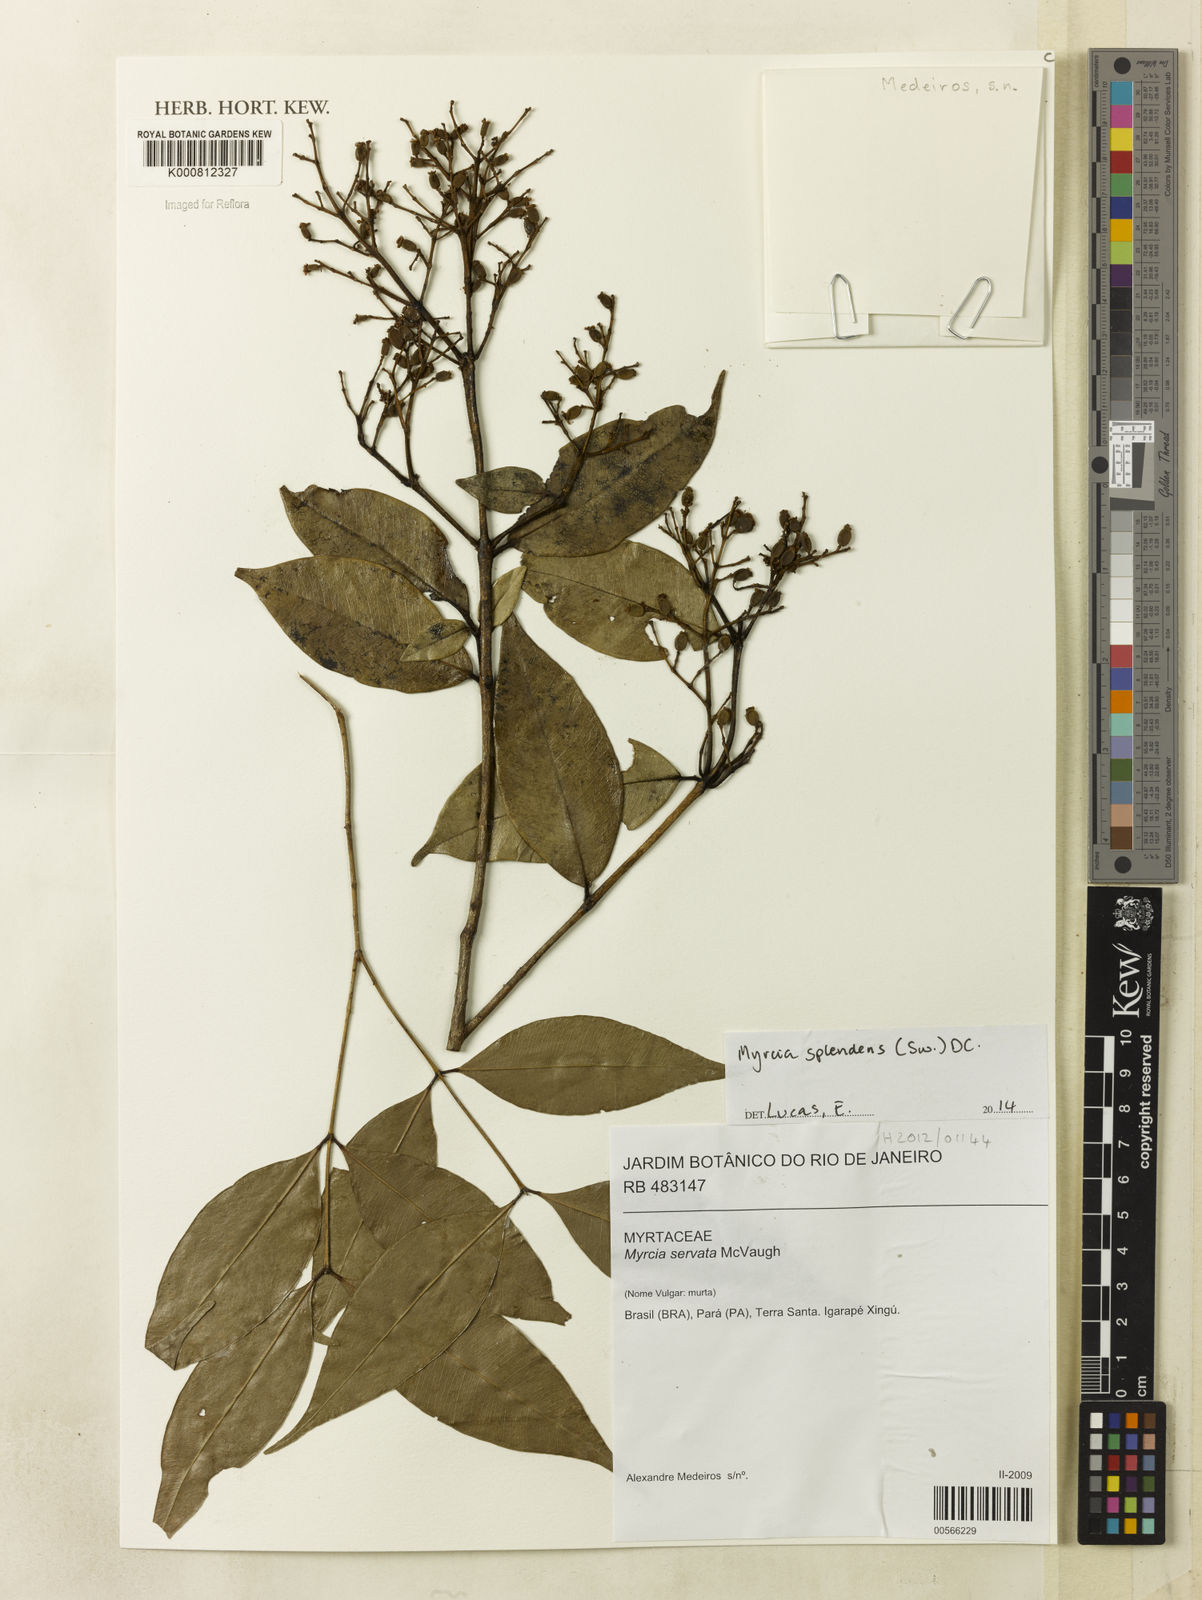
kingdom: Plantae
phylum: Tracheophyta
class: Magnoliopsida
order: Myrtales
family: Myrtaceae
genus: Myrcia
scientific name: Myrcia servata
